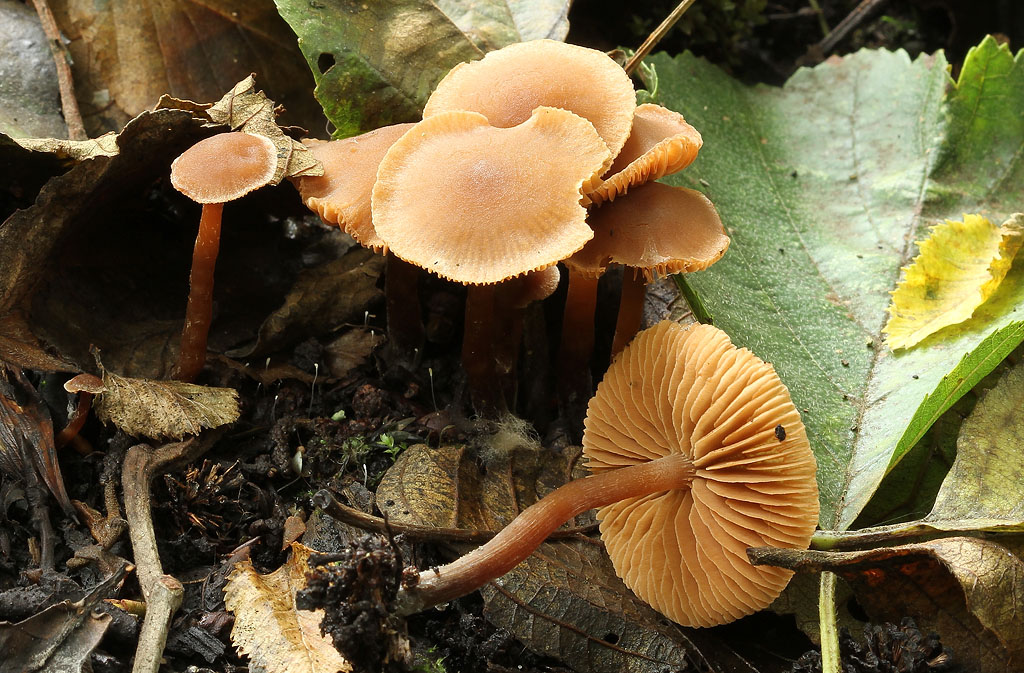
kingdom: Fungi
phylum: Basidiomycota
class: Agaricomycetes
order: Agaricales
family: Hymenogastraceae
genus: Naucoria
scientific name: Naucoria scolecina
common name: mørk elle-knaphat
